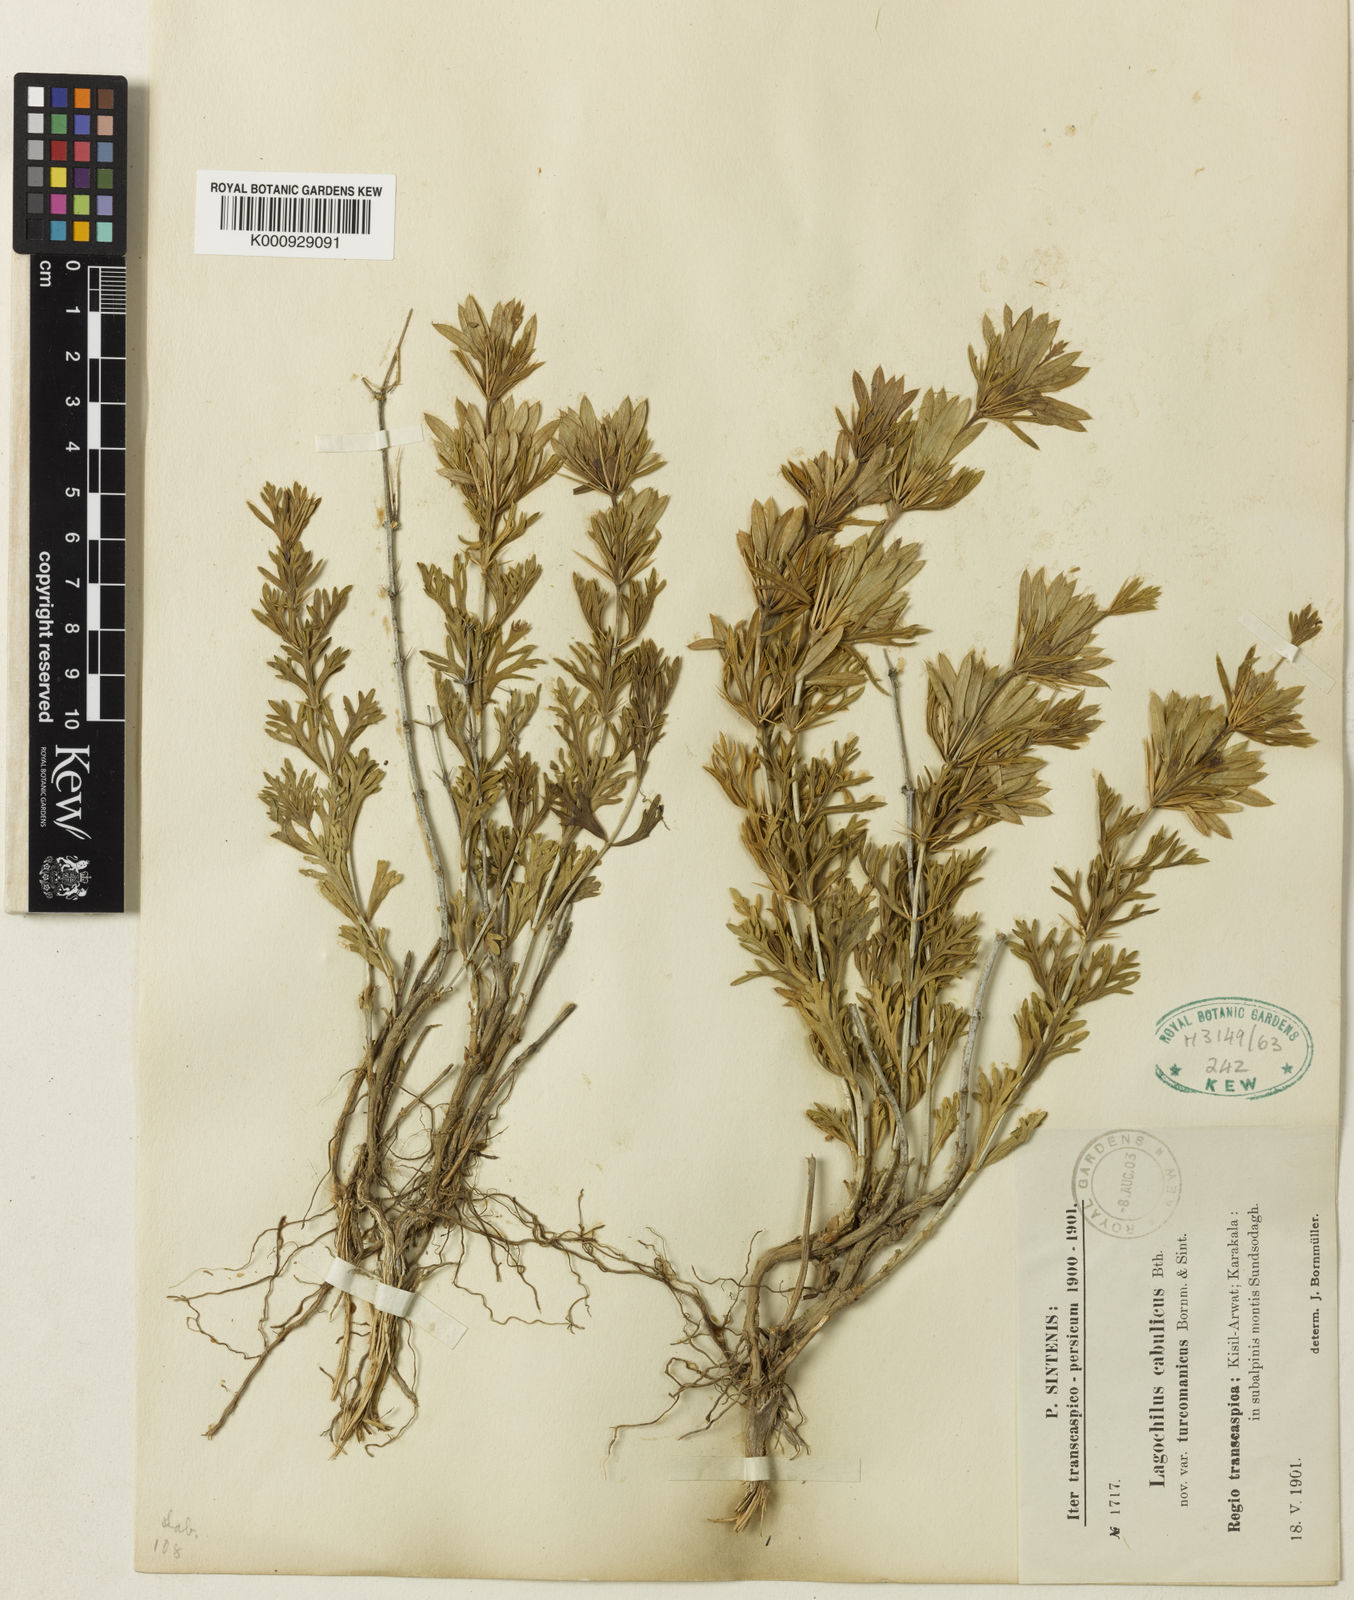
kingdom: Plantae
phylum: Tracheophyta
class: Magnoliopsida
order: Lamiales
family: Lamiaceae
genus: Lagochilus
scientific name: Lagochilus cabulicus
